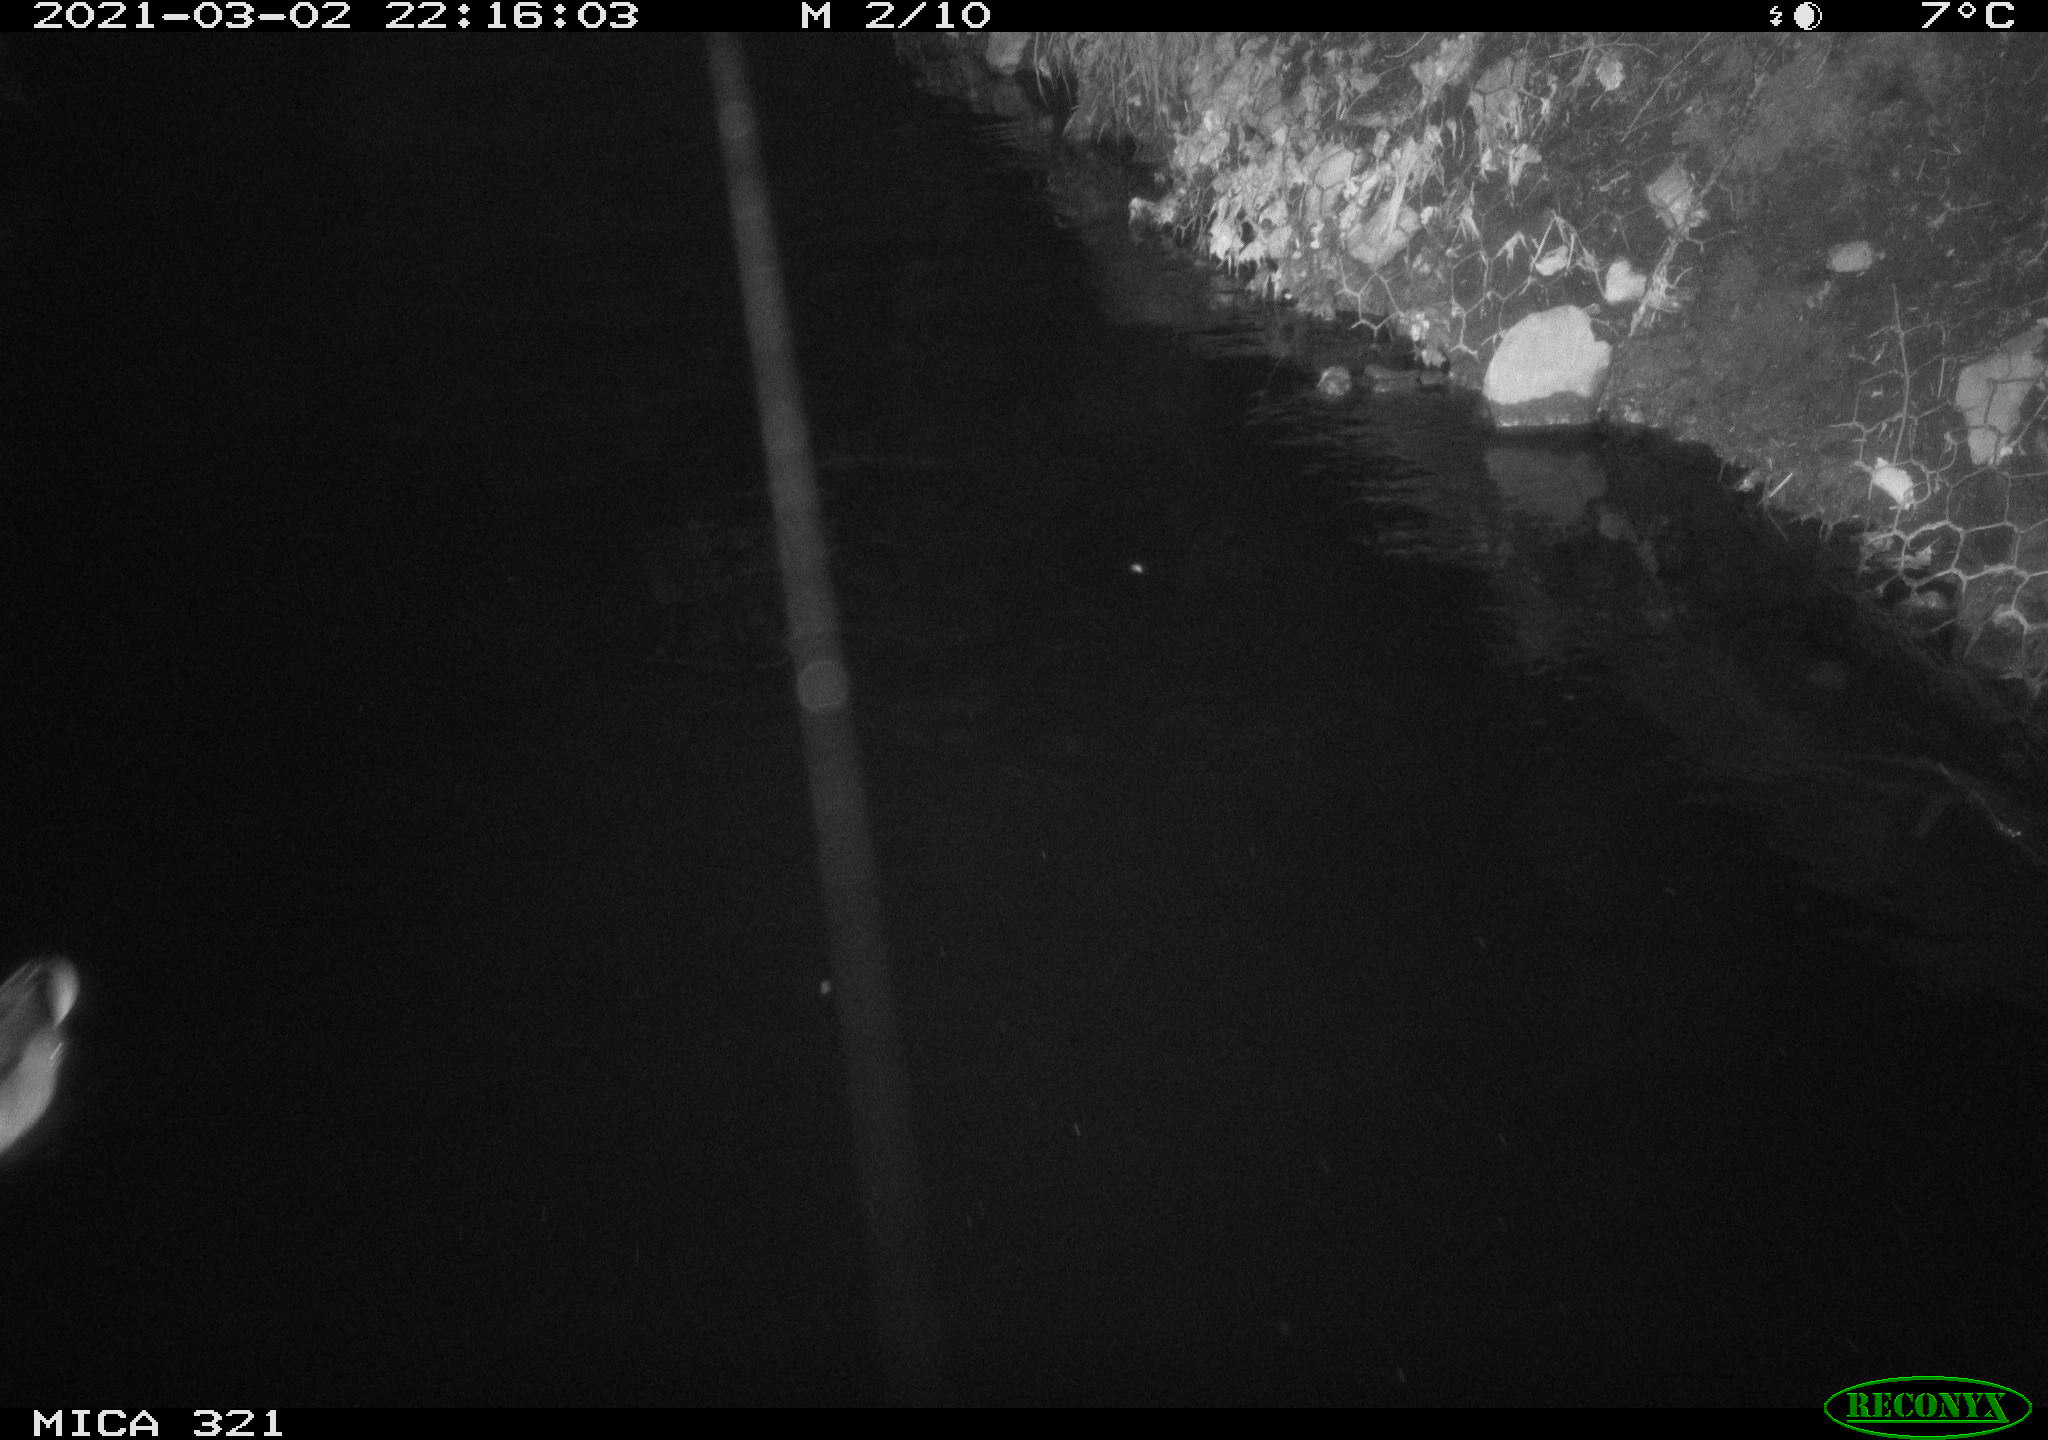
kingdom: Animalia
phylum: Chordata
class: Aves
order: Anseriformes
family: Anatidae
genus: Anas
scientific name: Anas platyrhynchos
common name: Mallard
